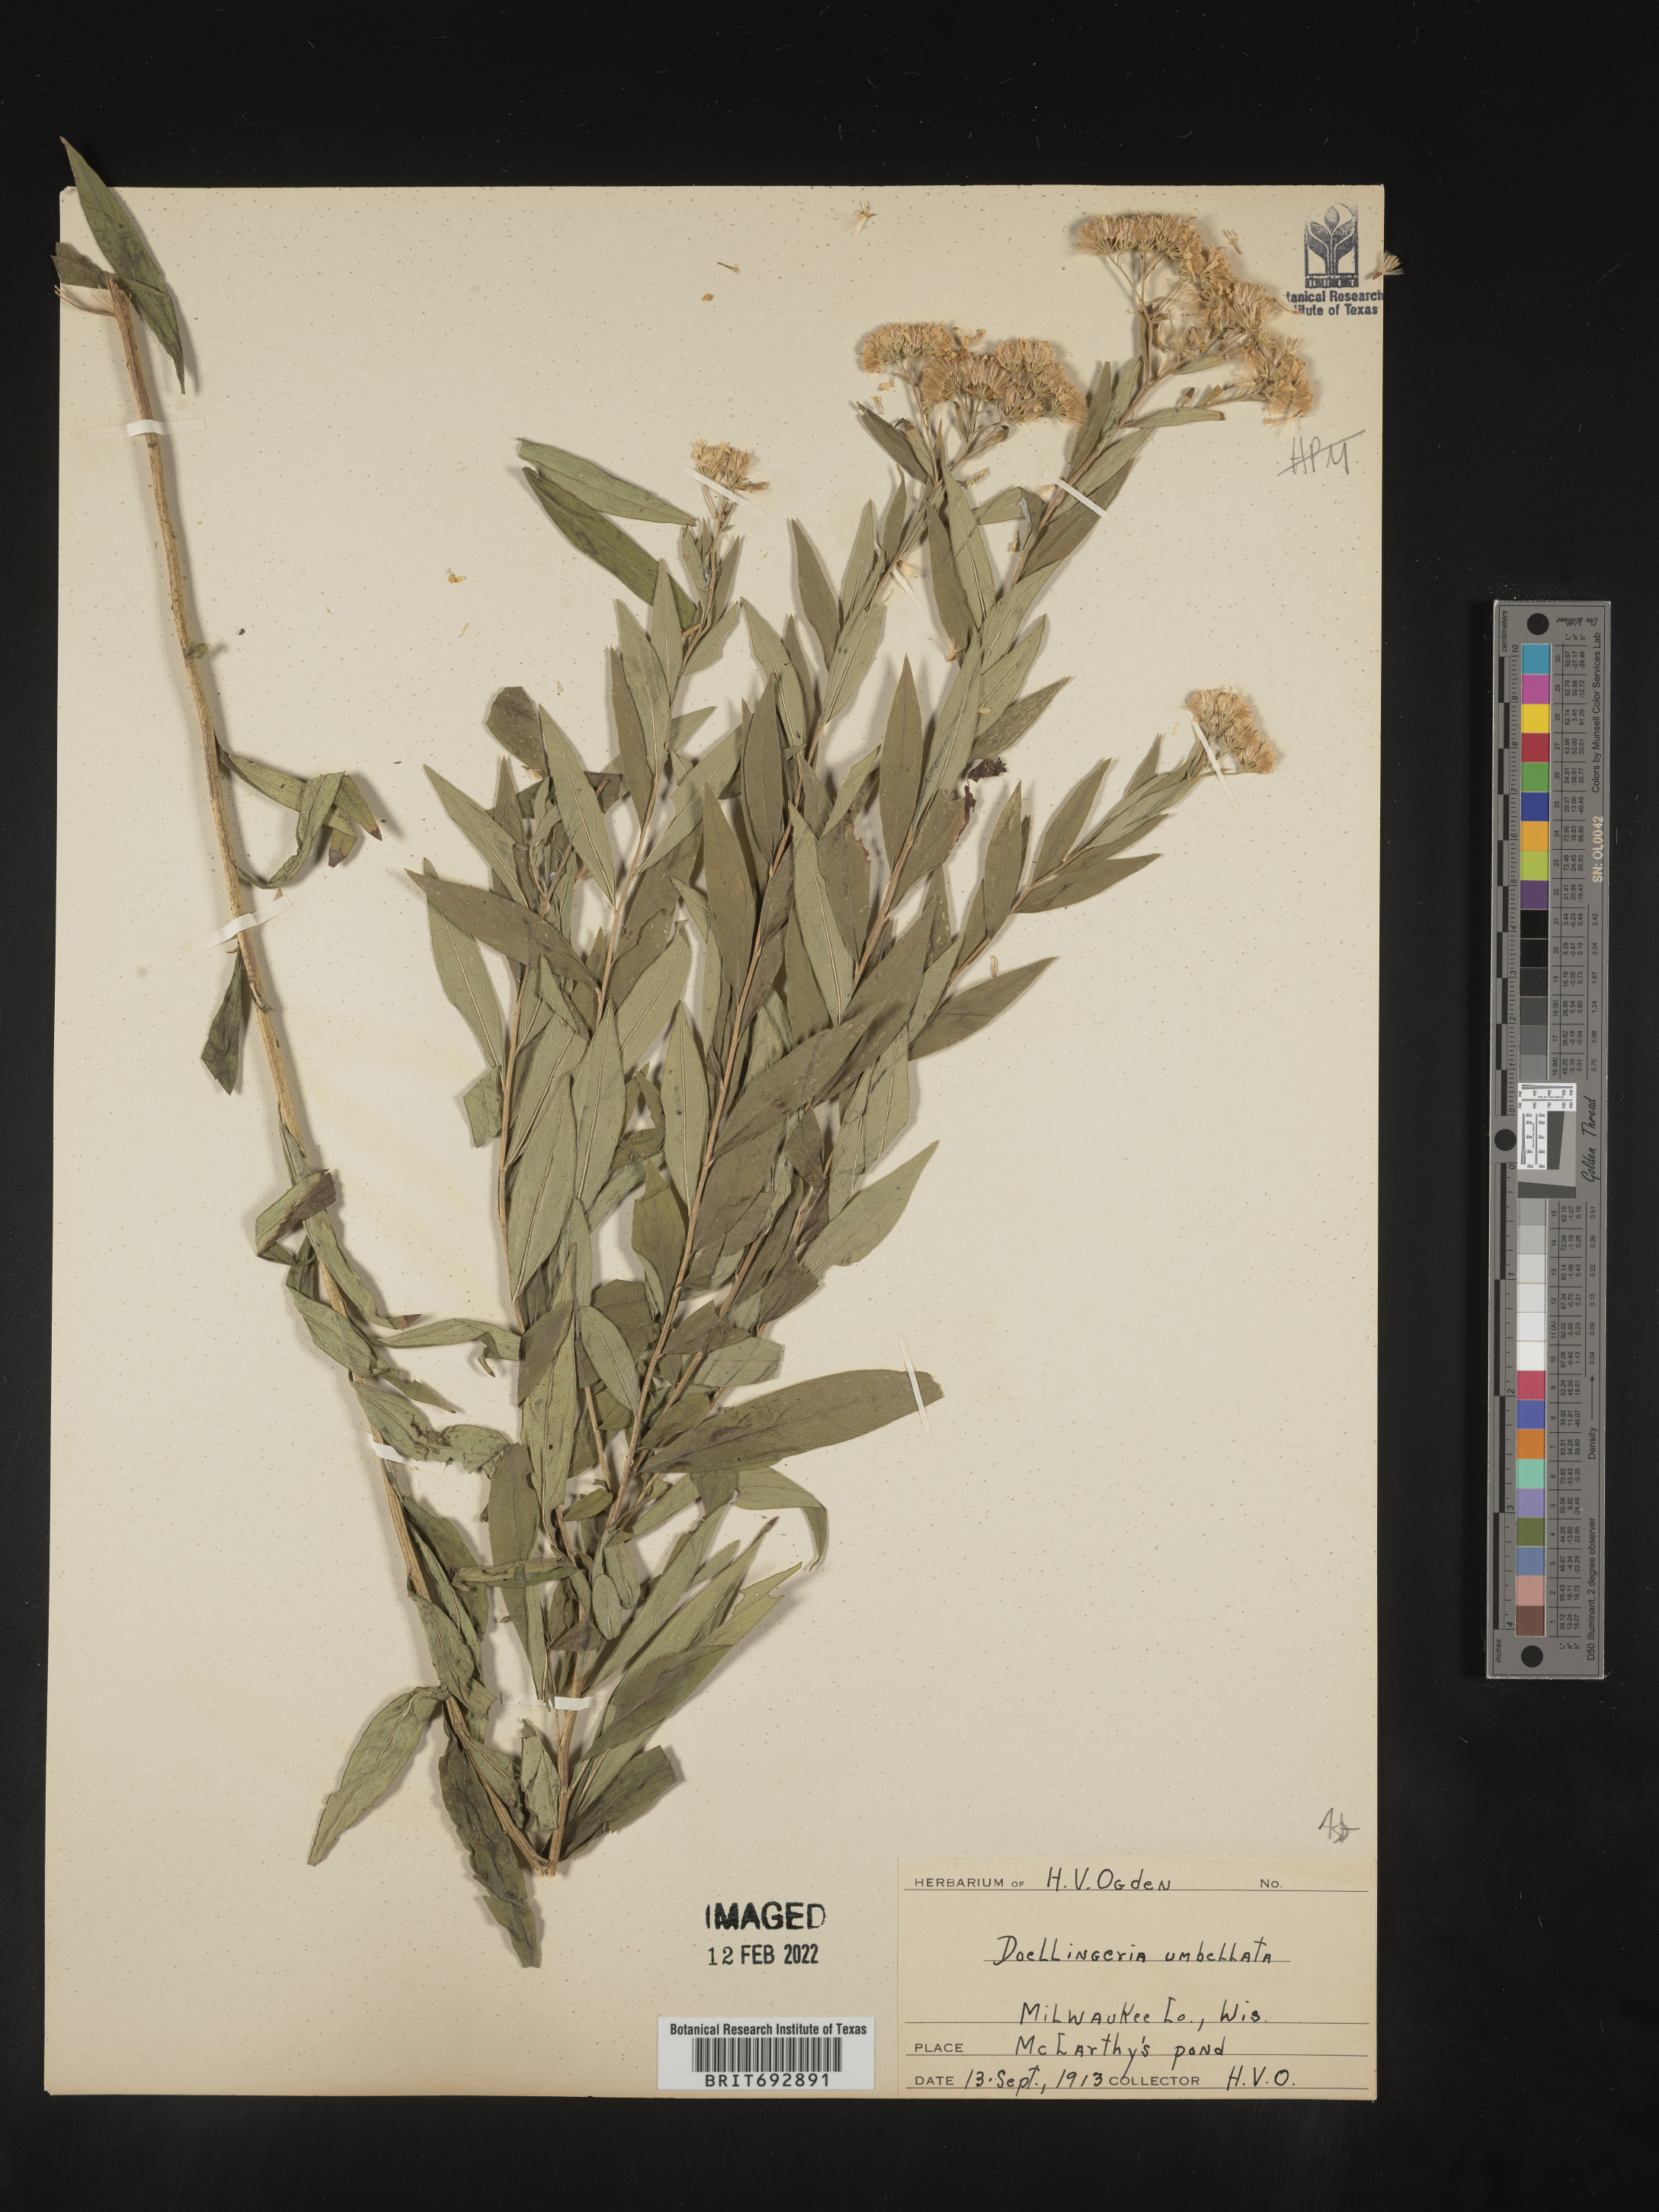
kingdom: Plantae
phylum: Tracheophyta
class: Magnoliopsida
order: Asterales
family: Asteraceae
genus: Doellingeria
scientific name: Doellingeria umbellata
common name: Flat-top white aster
